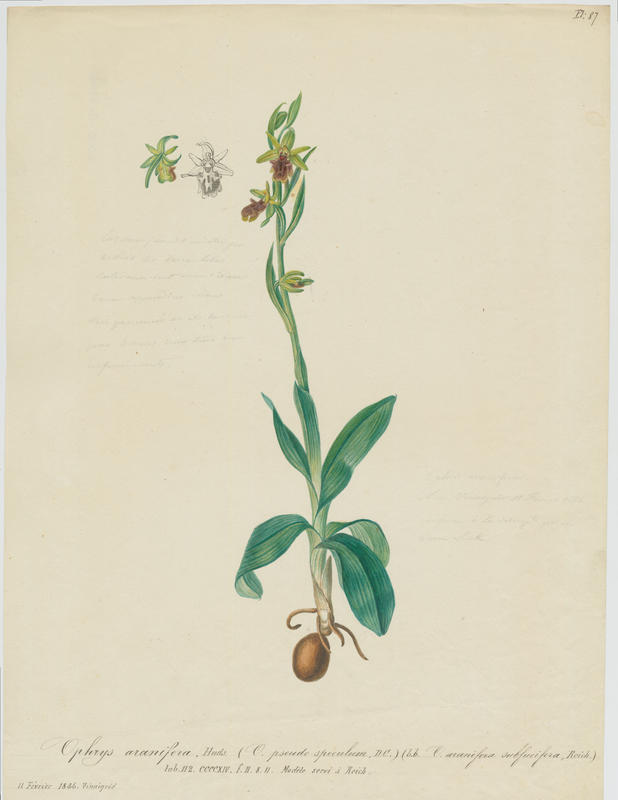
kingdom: Plantae
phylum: Tracheophyta
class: Liliopsida
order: Asparagales
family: Orchidaceae
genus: Ophrys
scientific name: Ophrys sphegodes
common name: Early spider-orchid
